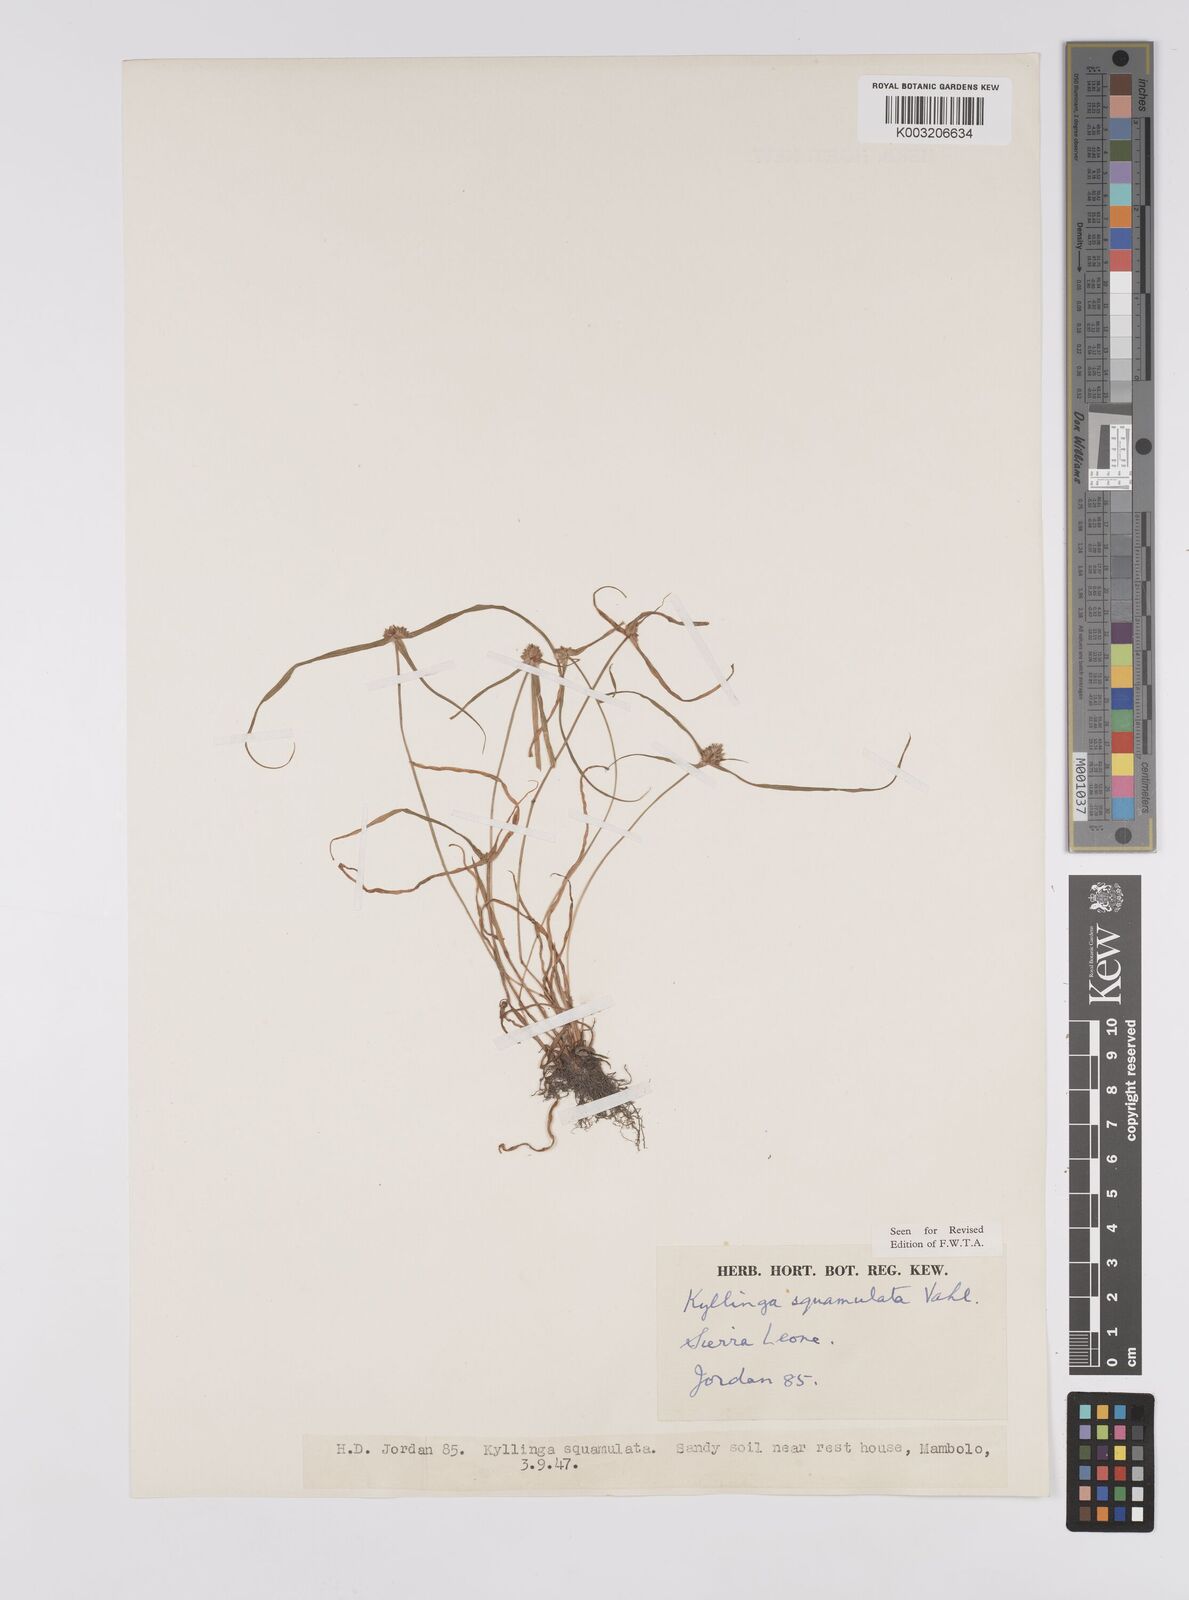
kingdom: Plantae
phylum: Tracheophyta
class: Liliopsida
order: Poales
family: Cyperaceae
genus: Cyperus
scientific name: Cyperus distans
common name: Slender cyperus
